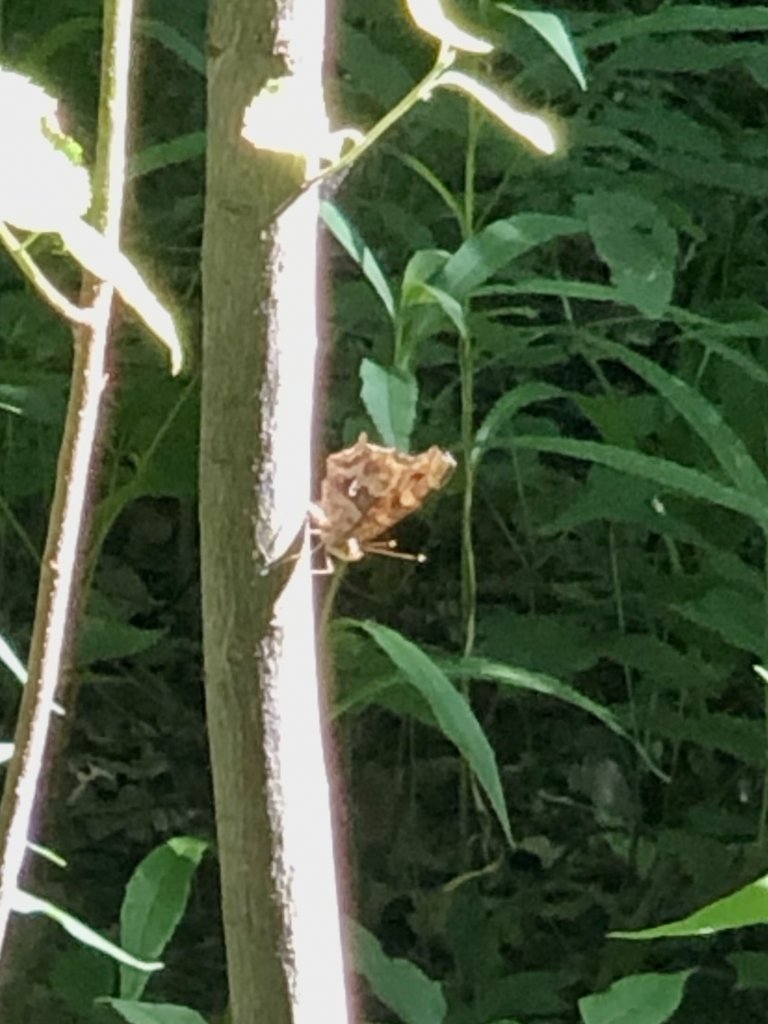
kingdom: Animalia
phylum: Arthropoda
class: Insecta
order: Lepidoptera
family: Nymphalidae
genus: Polygonia
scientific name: Polygonia comma
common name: Eastern Comma
